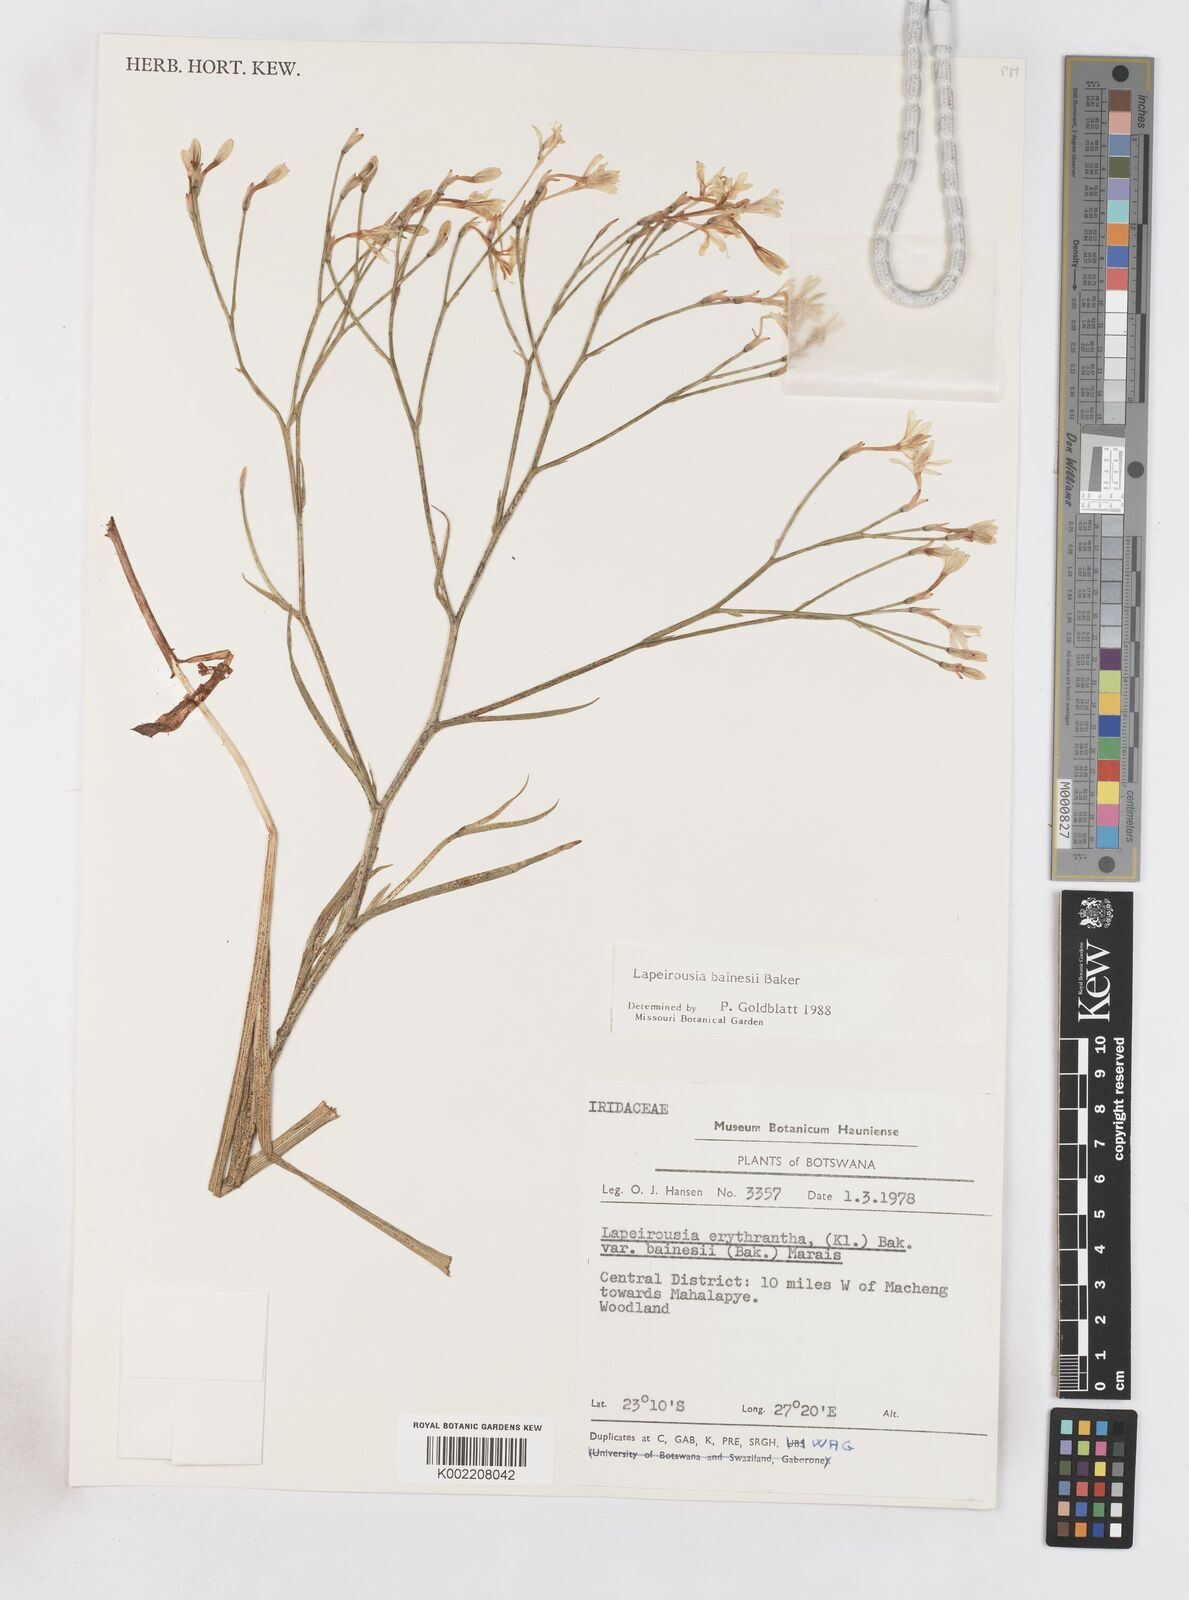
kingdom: Plantae
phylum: Tracheophyta
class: Liliopsida
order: Asparagales
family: Iridaceae
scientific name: Iridaceae
